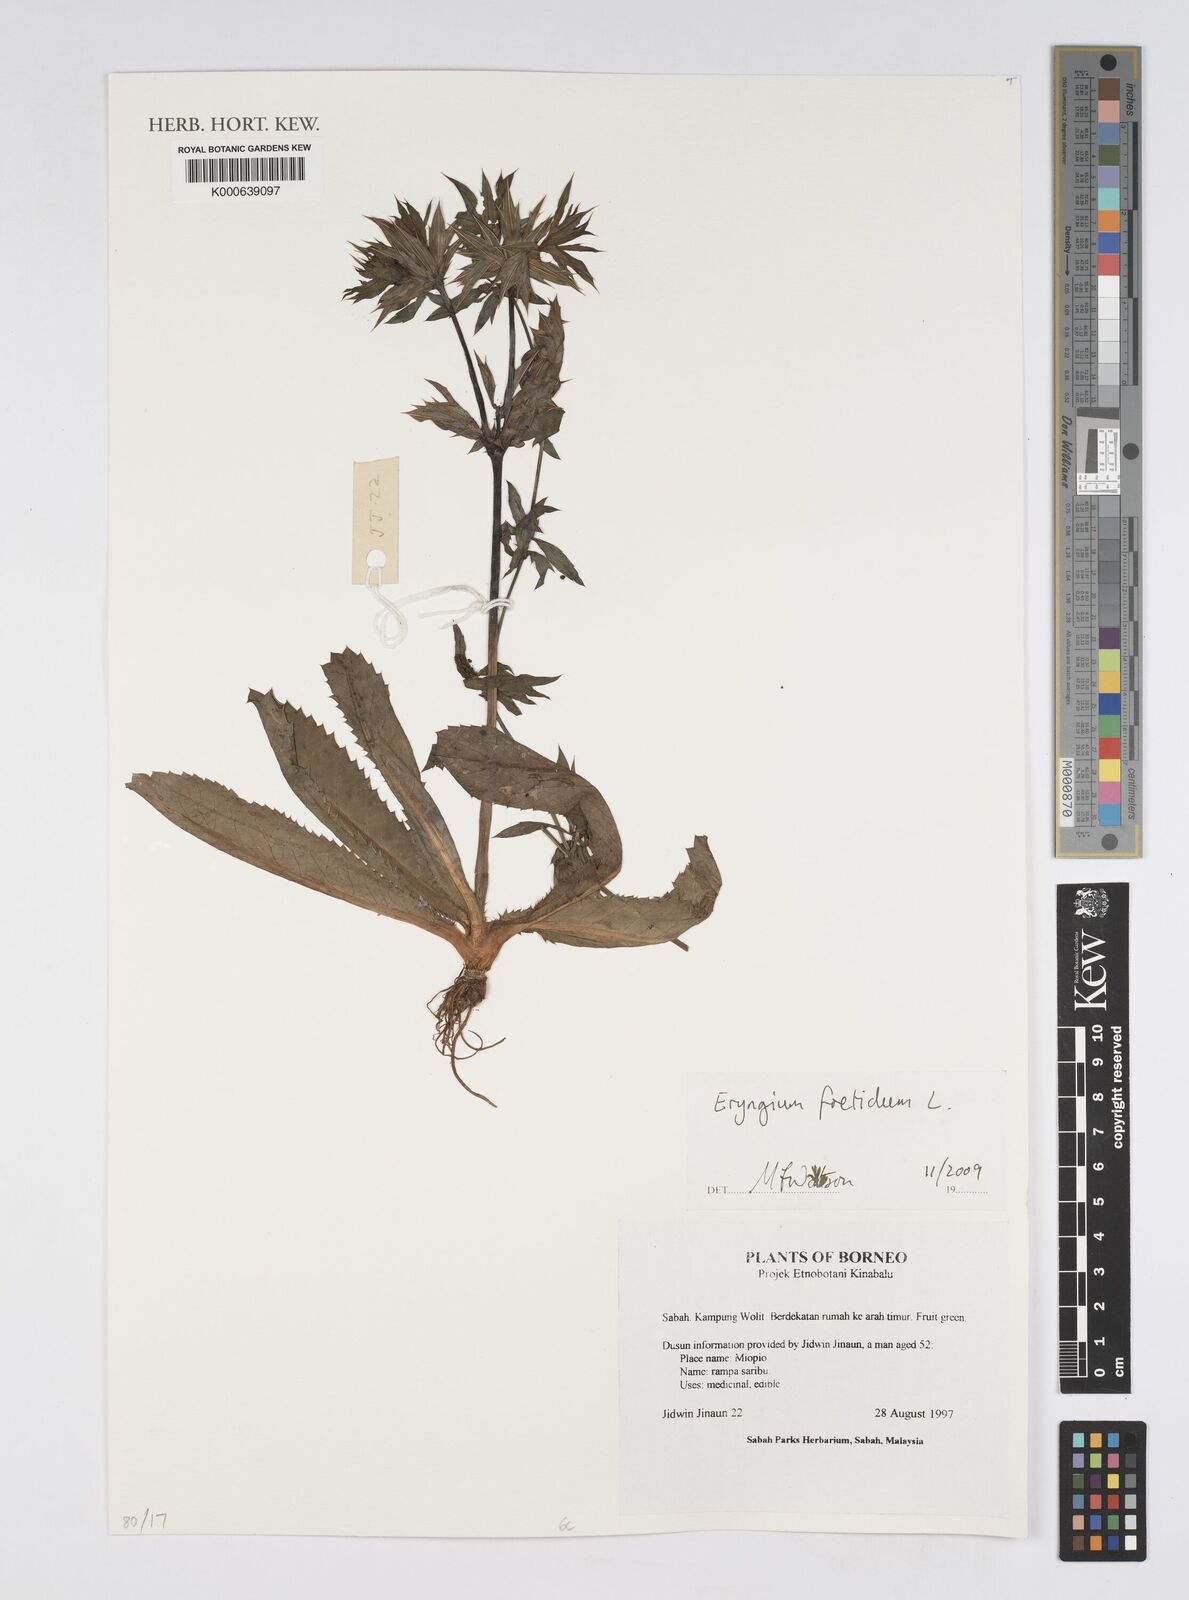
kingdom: Plantae
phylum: Tracheophyta
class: Magnoliopsida
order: Apiales
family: Apiaceae
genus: Eryngium
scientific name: Eryngium foetidum
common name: Fitweed
